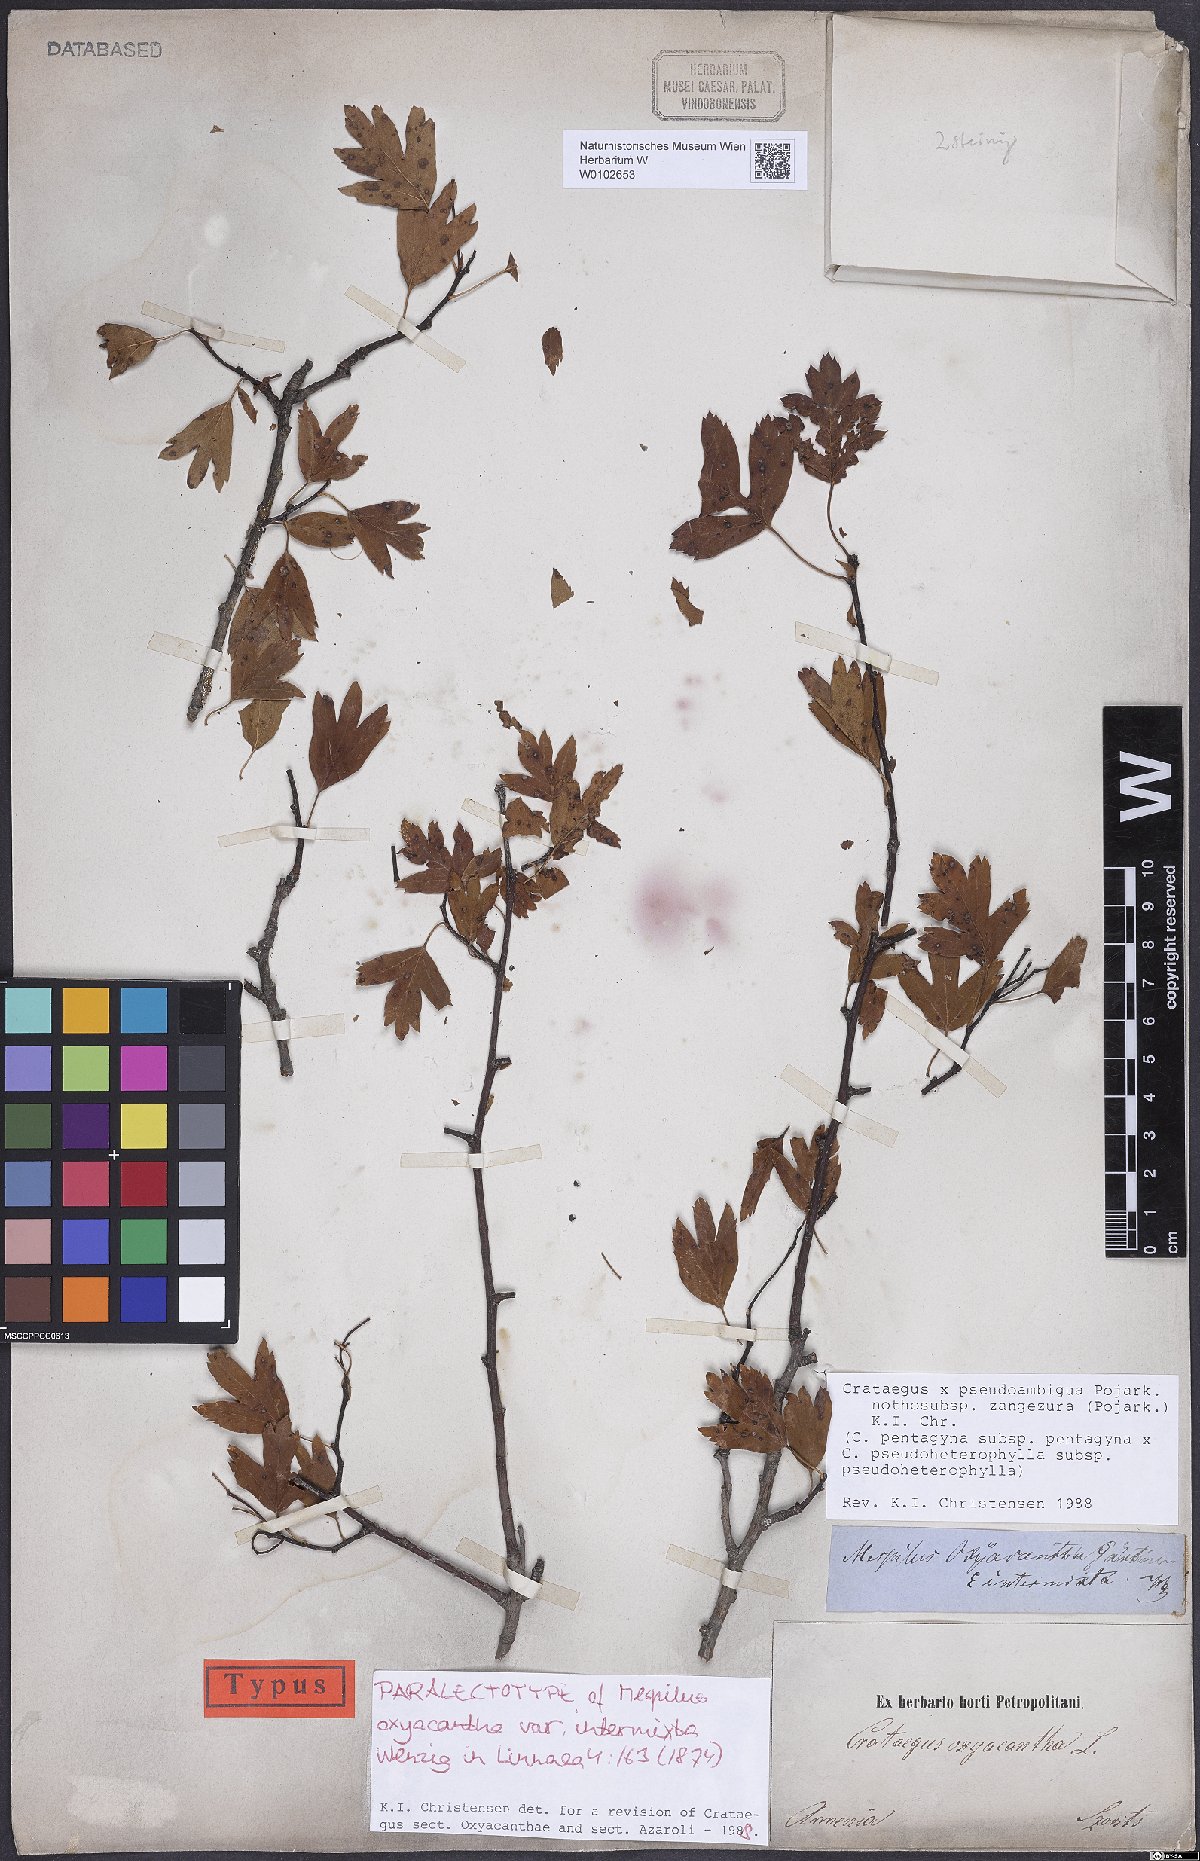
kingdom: Plantae
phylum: Tracheophyta
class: Magnoliopsida
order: Rosales
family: Rosaceae
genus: Crataegus
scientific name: Crataegus zangezura
